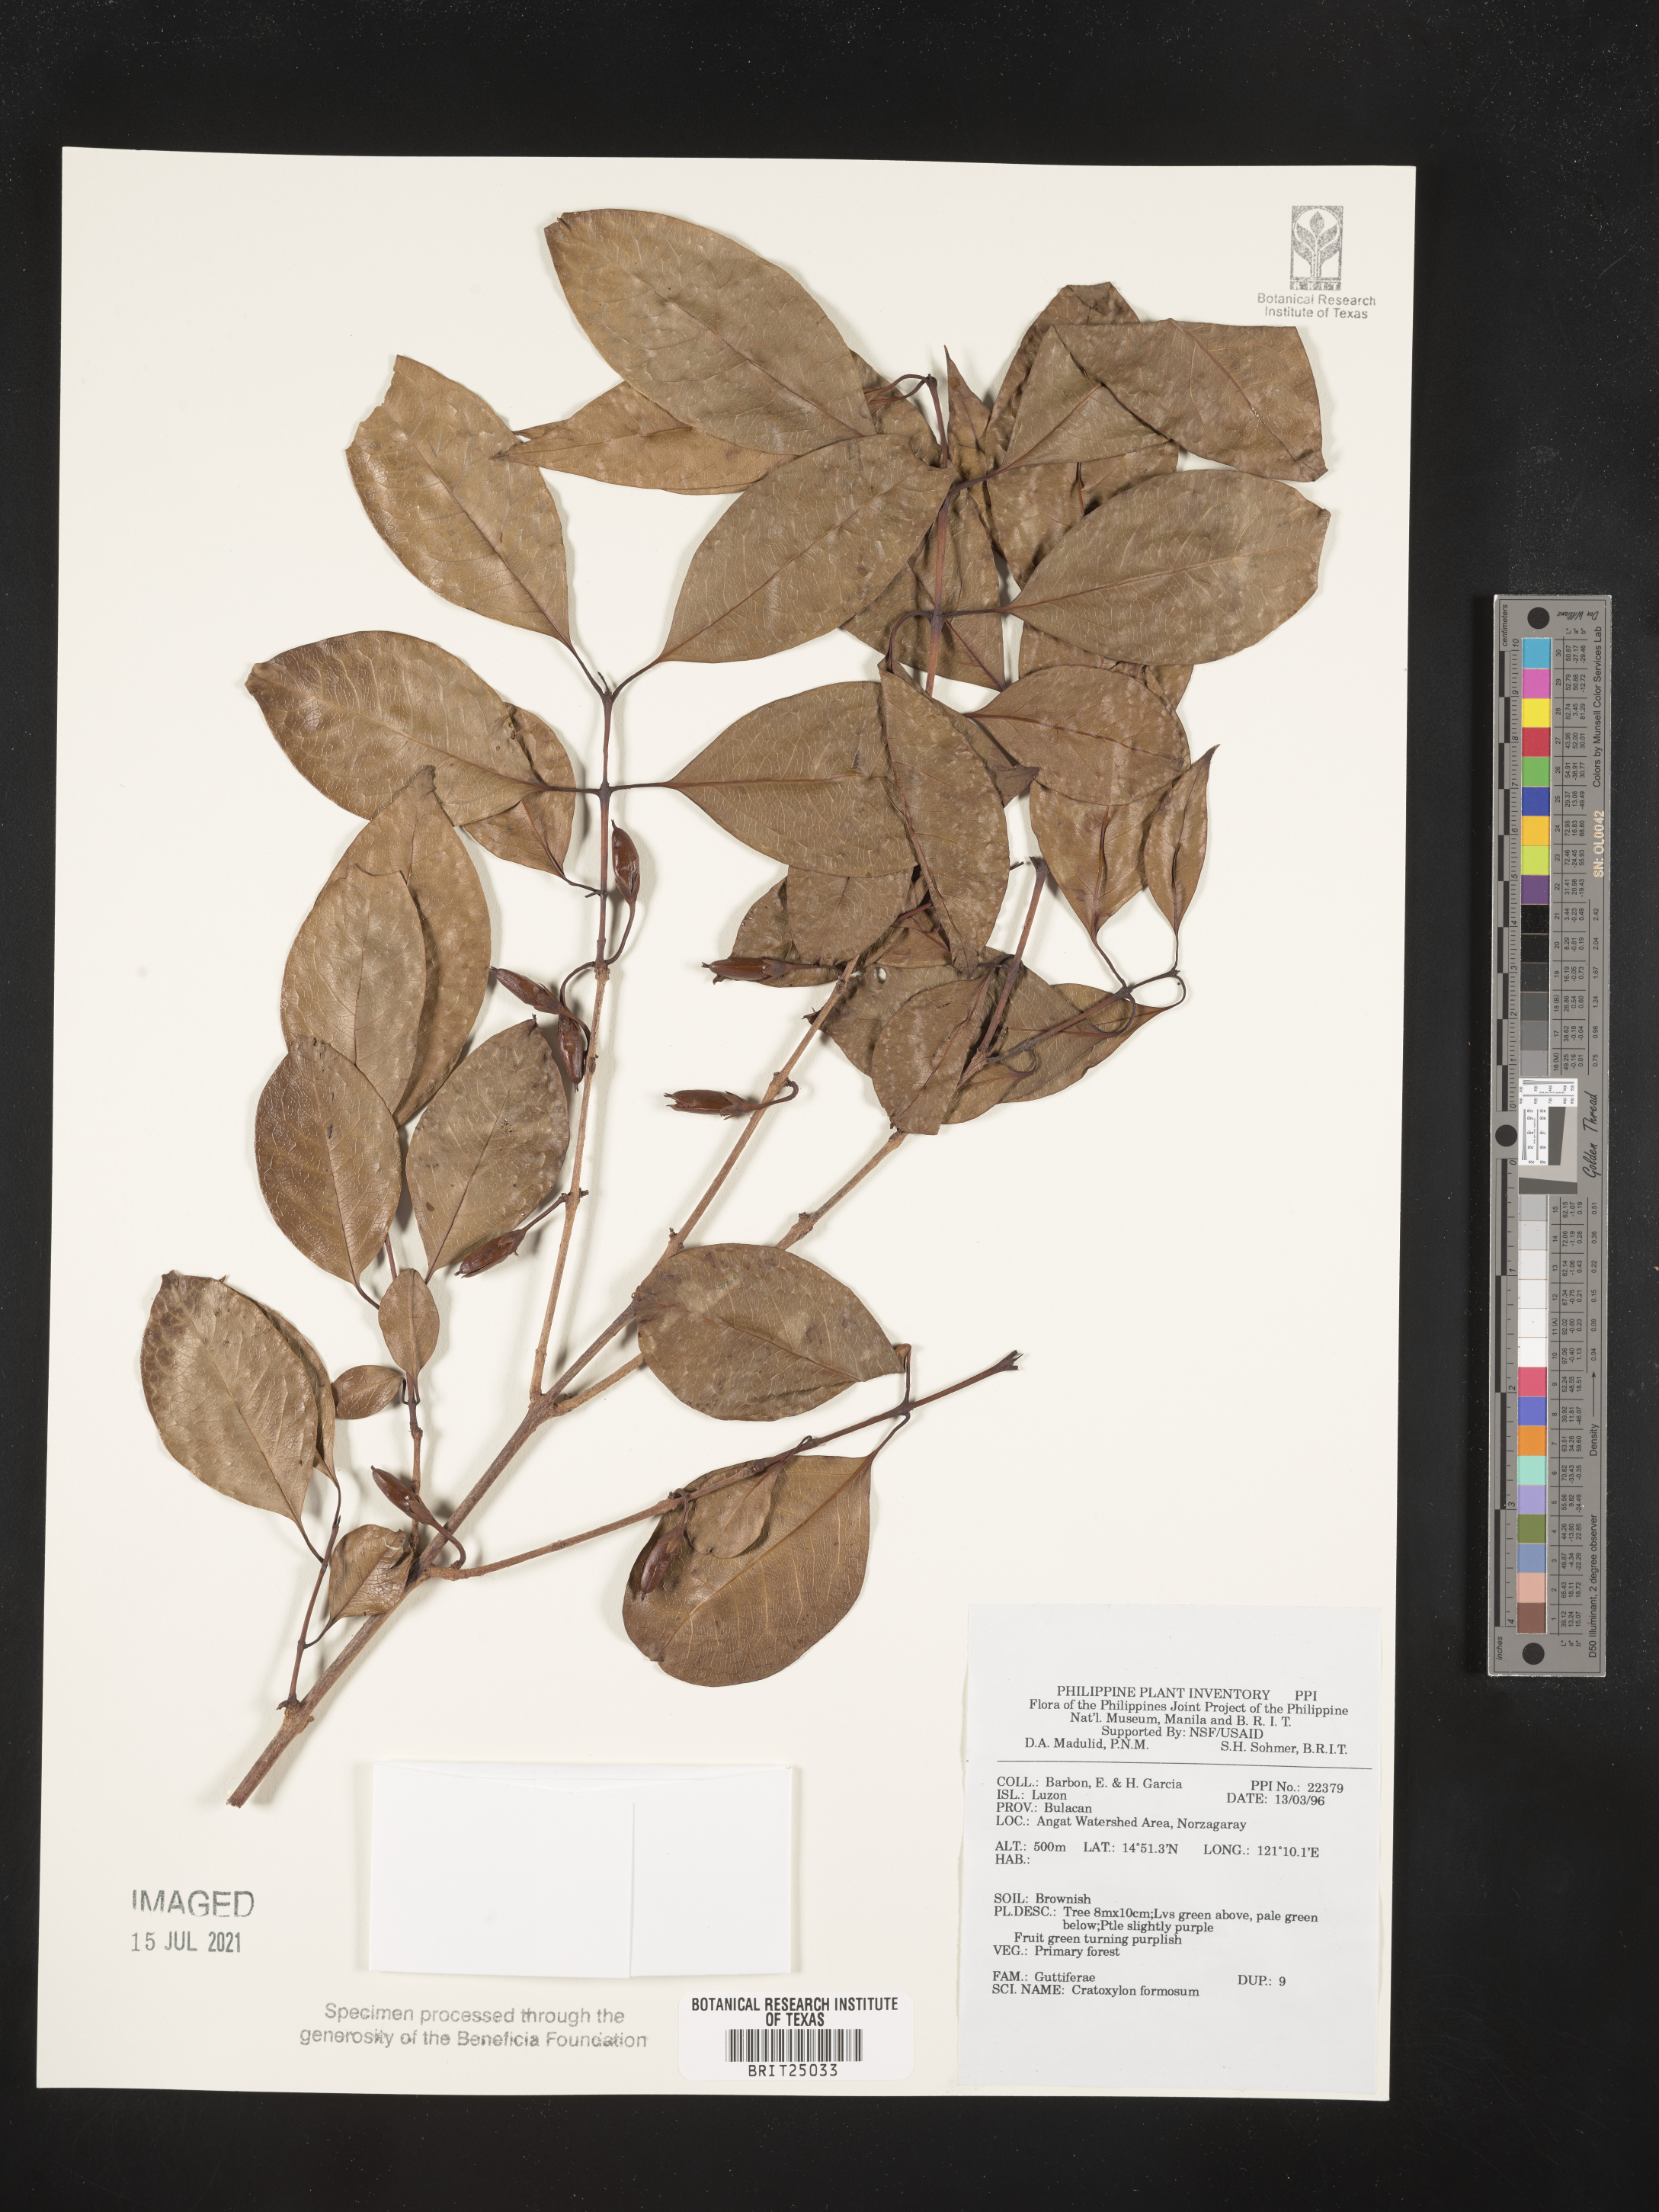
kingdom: Plantae
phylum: Tracheophyta
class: Magnoliopsida
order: Malpighiales
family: Hypericaceae
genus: Cratoxylum
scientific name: Cratoxylum formosum
